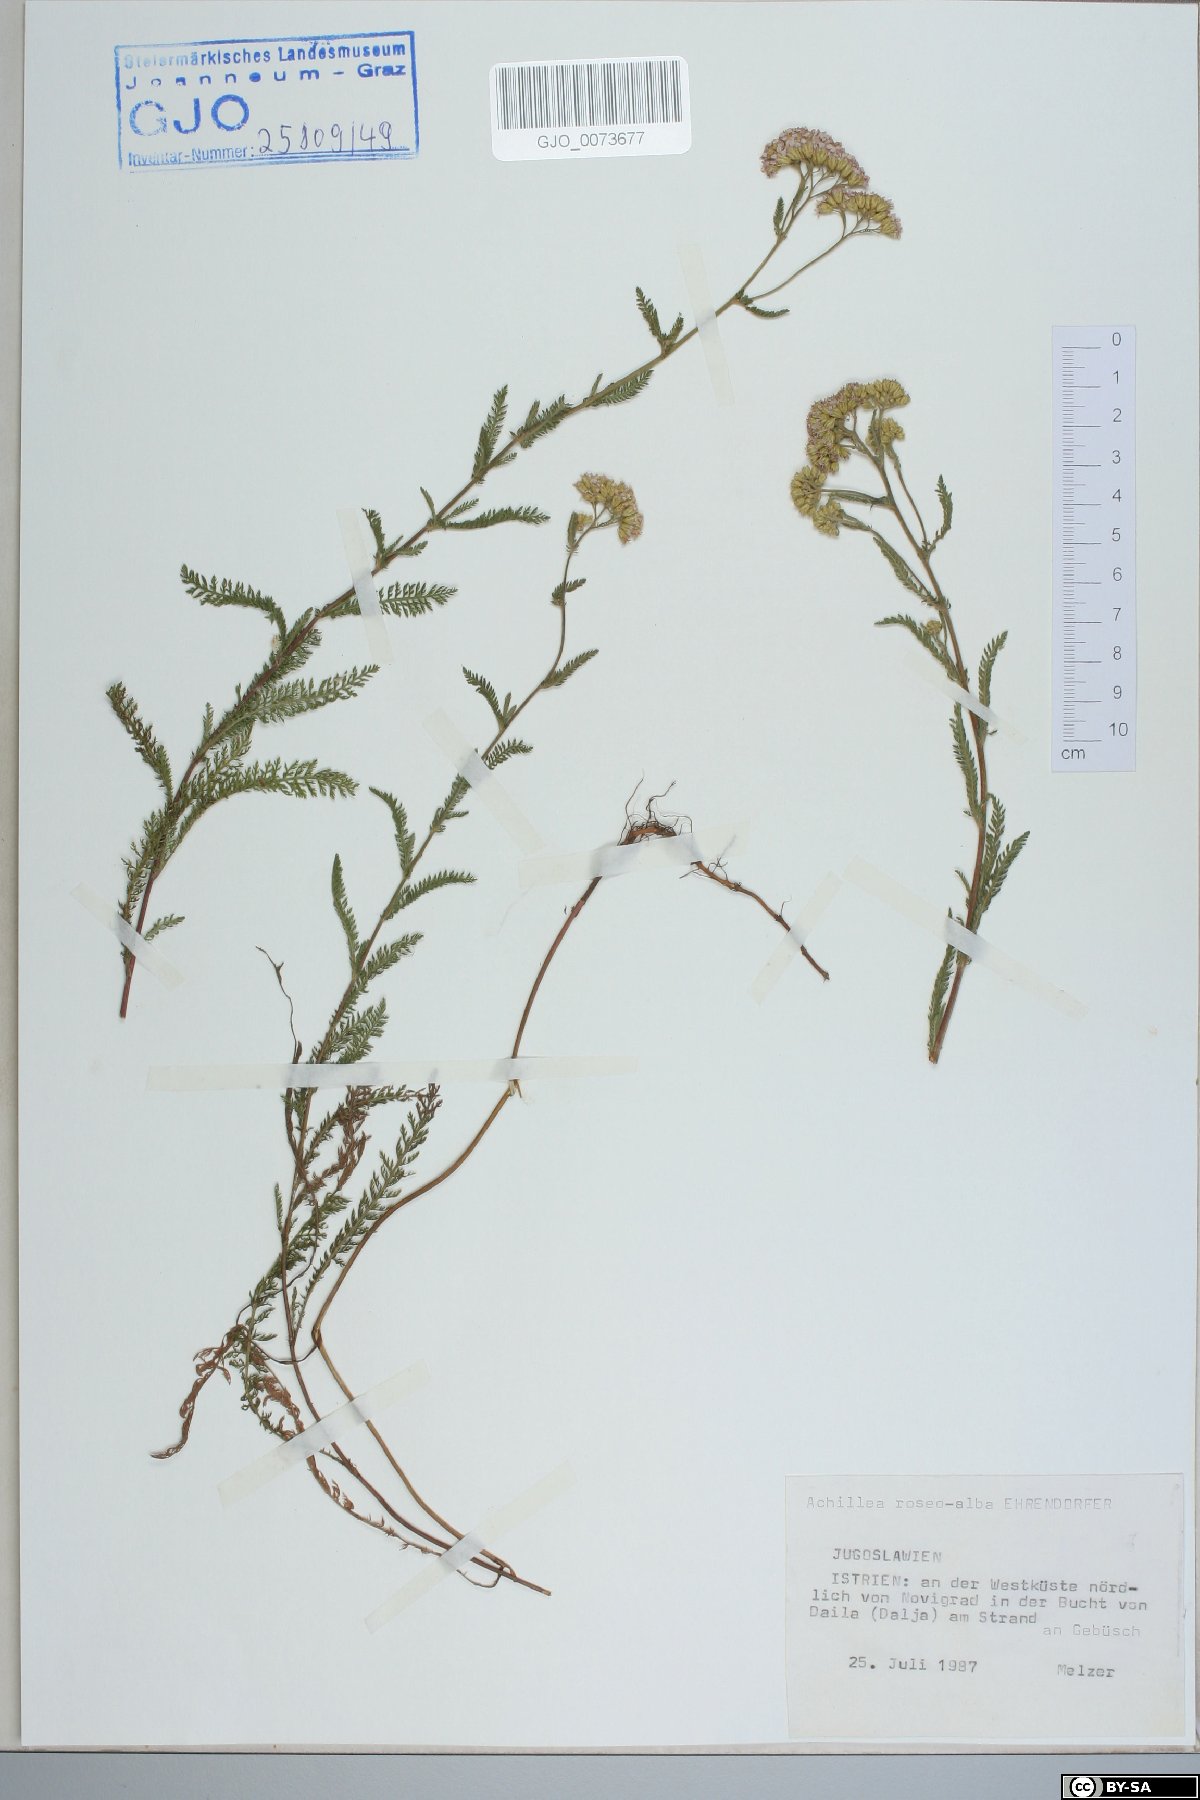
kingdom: Plantae
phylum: Tracheophyta
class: Magnoliopsida
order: Asterales
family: Asteraceae
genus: Achillea
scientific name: Achillea roseoalba
